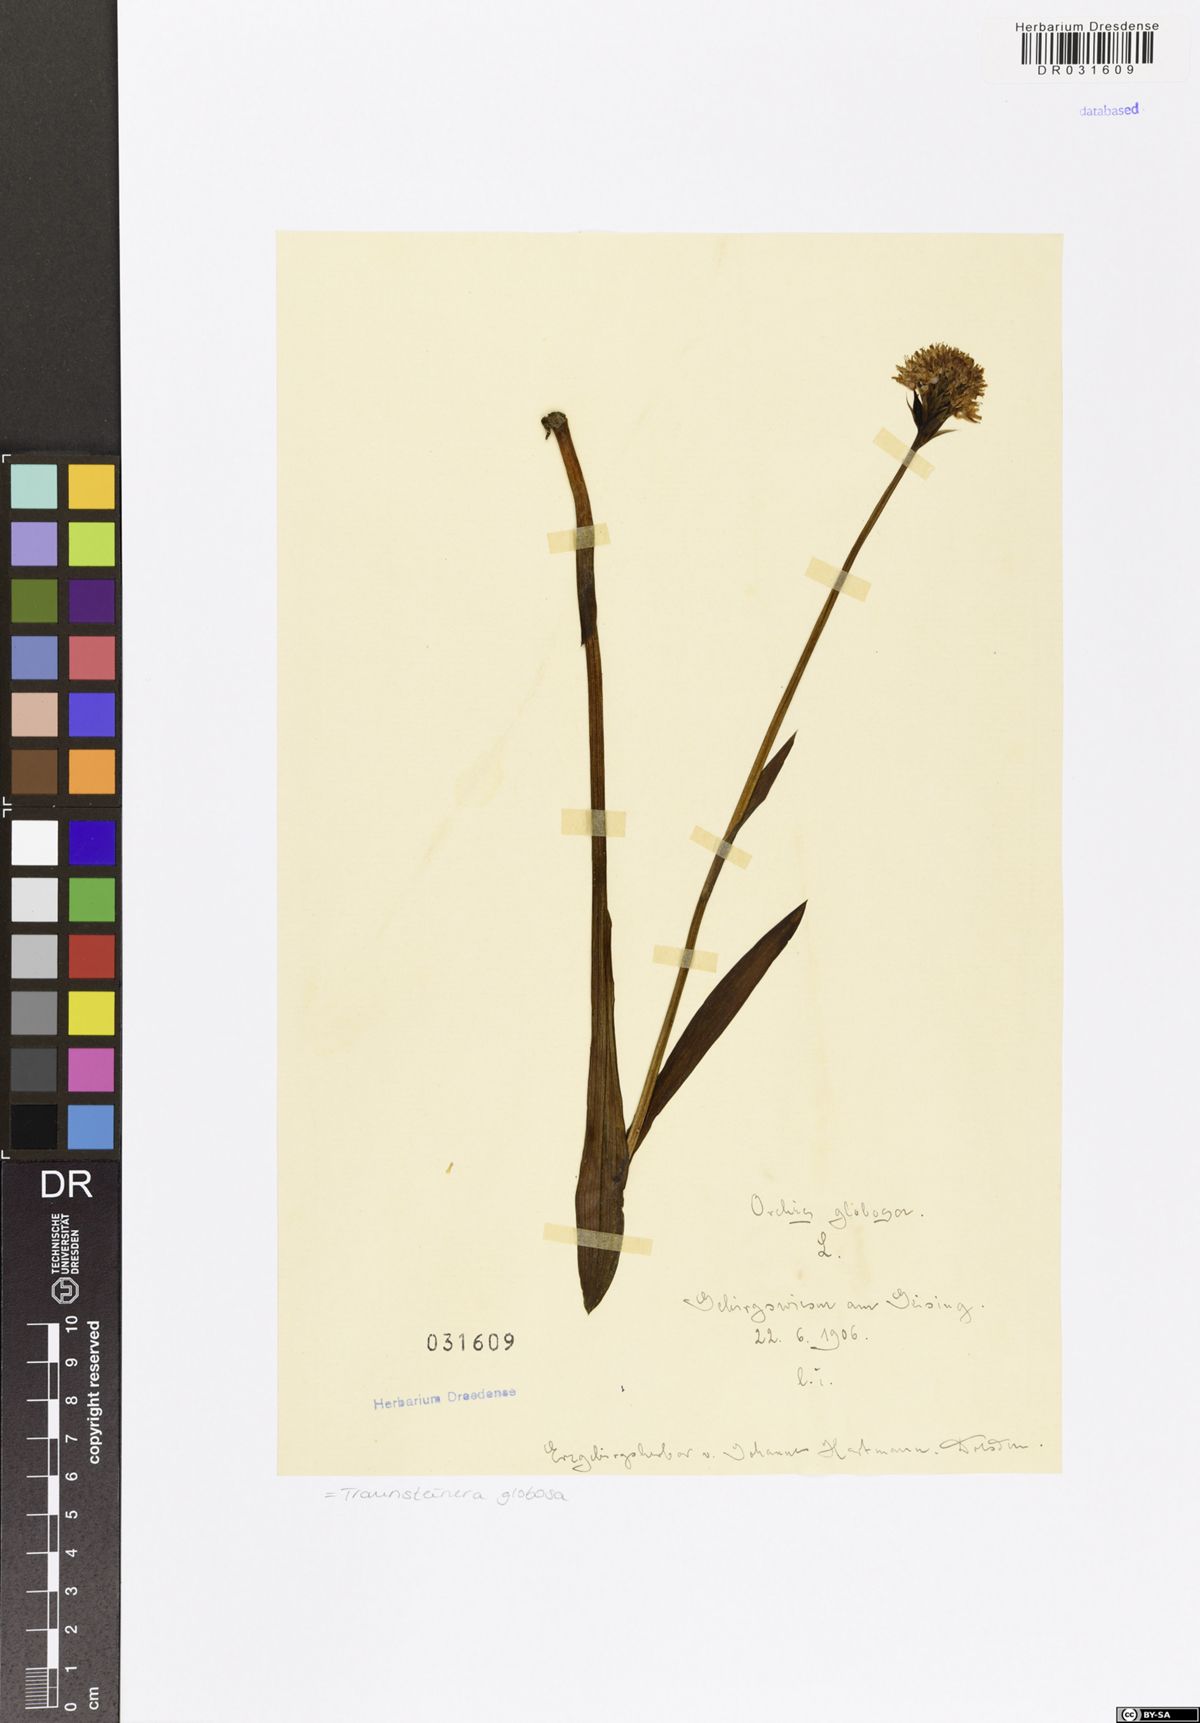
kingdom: Plantae
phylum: Tracheophyta
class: Liliopsida
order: Asparagales
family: Orchidaceae
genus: Traunsteinera
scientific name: Traunsteinera globosa
